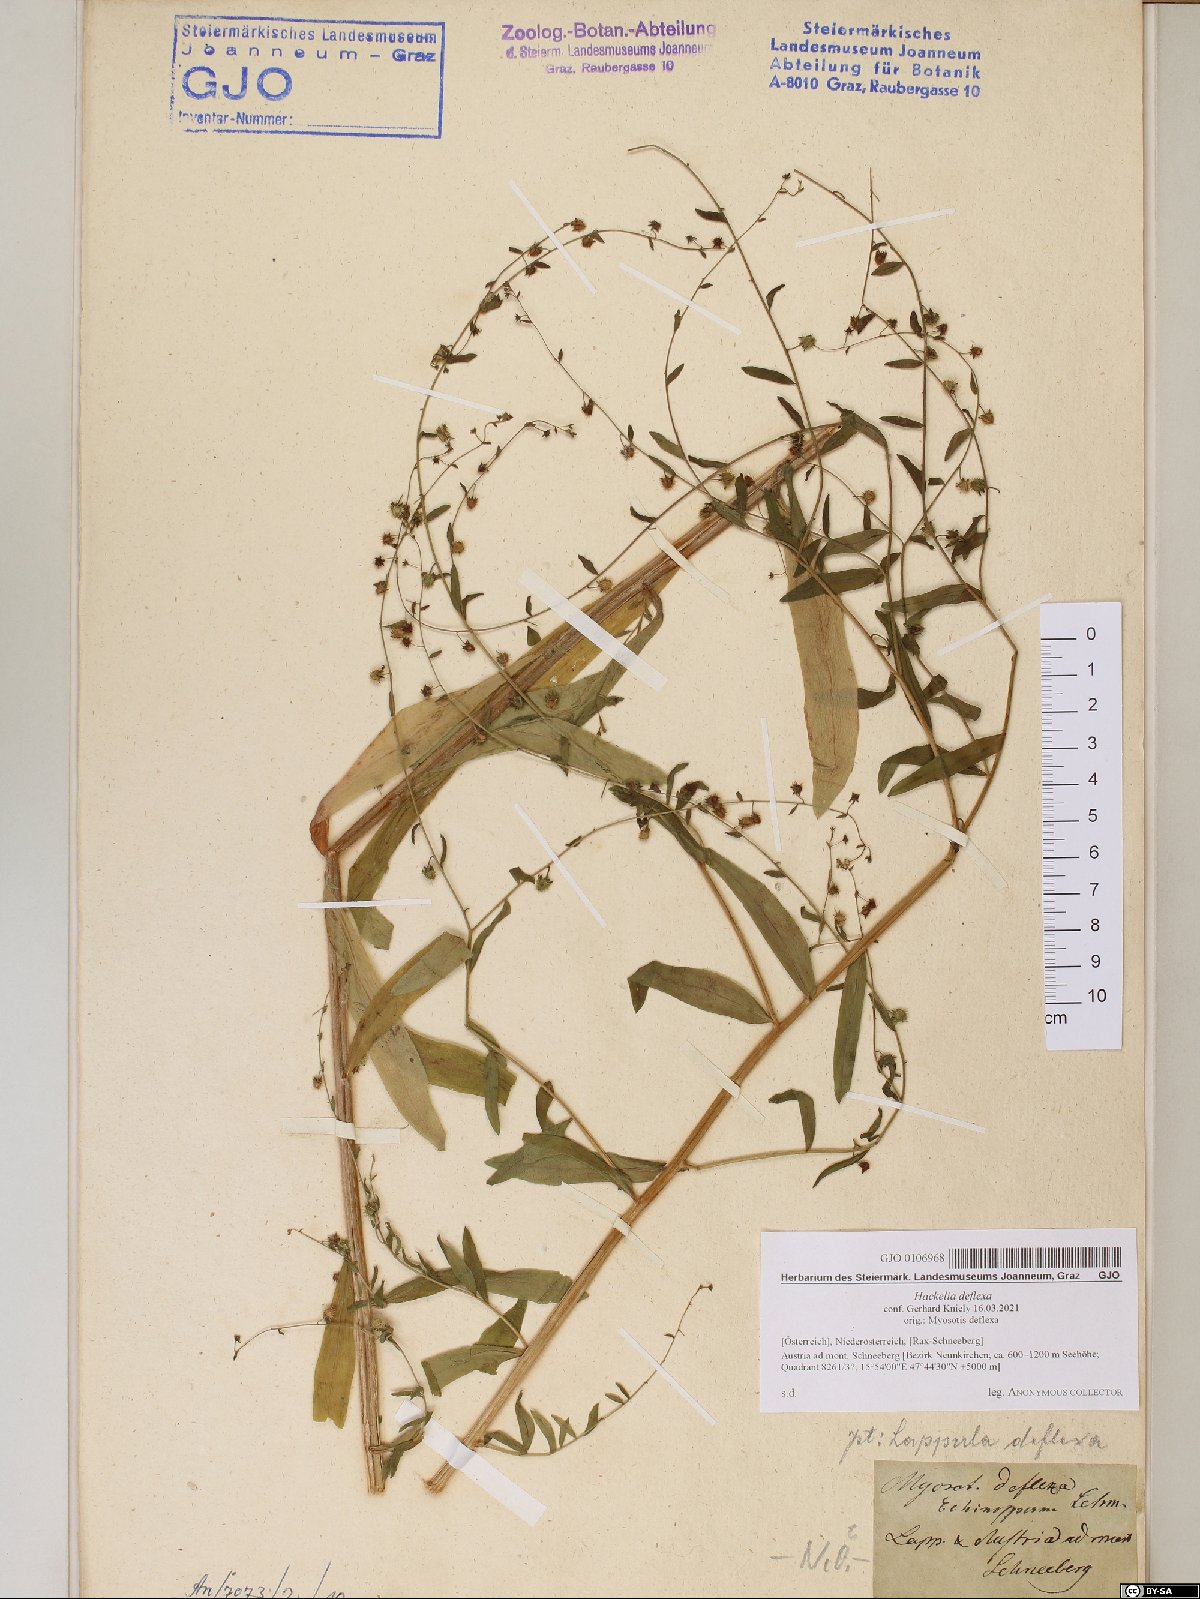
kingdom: Plantae
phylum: Tracheophyta
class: Magnoliopsida
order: Boraginales
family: Boraginaceae
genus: Hackelia
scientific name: Hackelia deflexa
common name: Nodding stickseed
